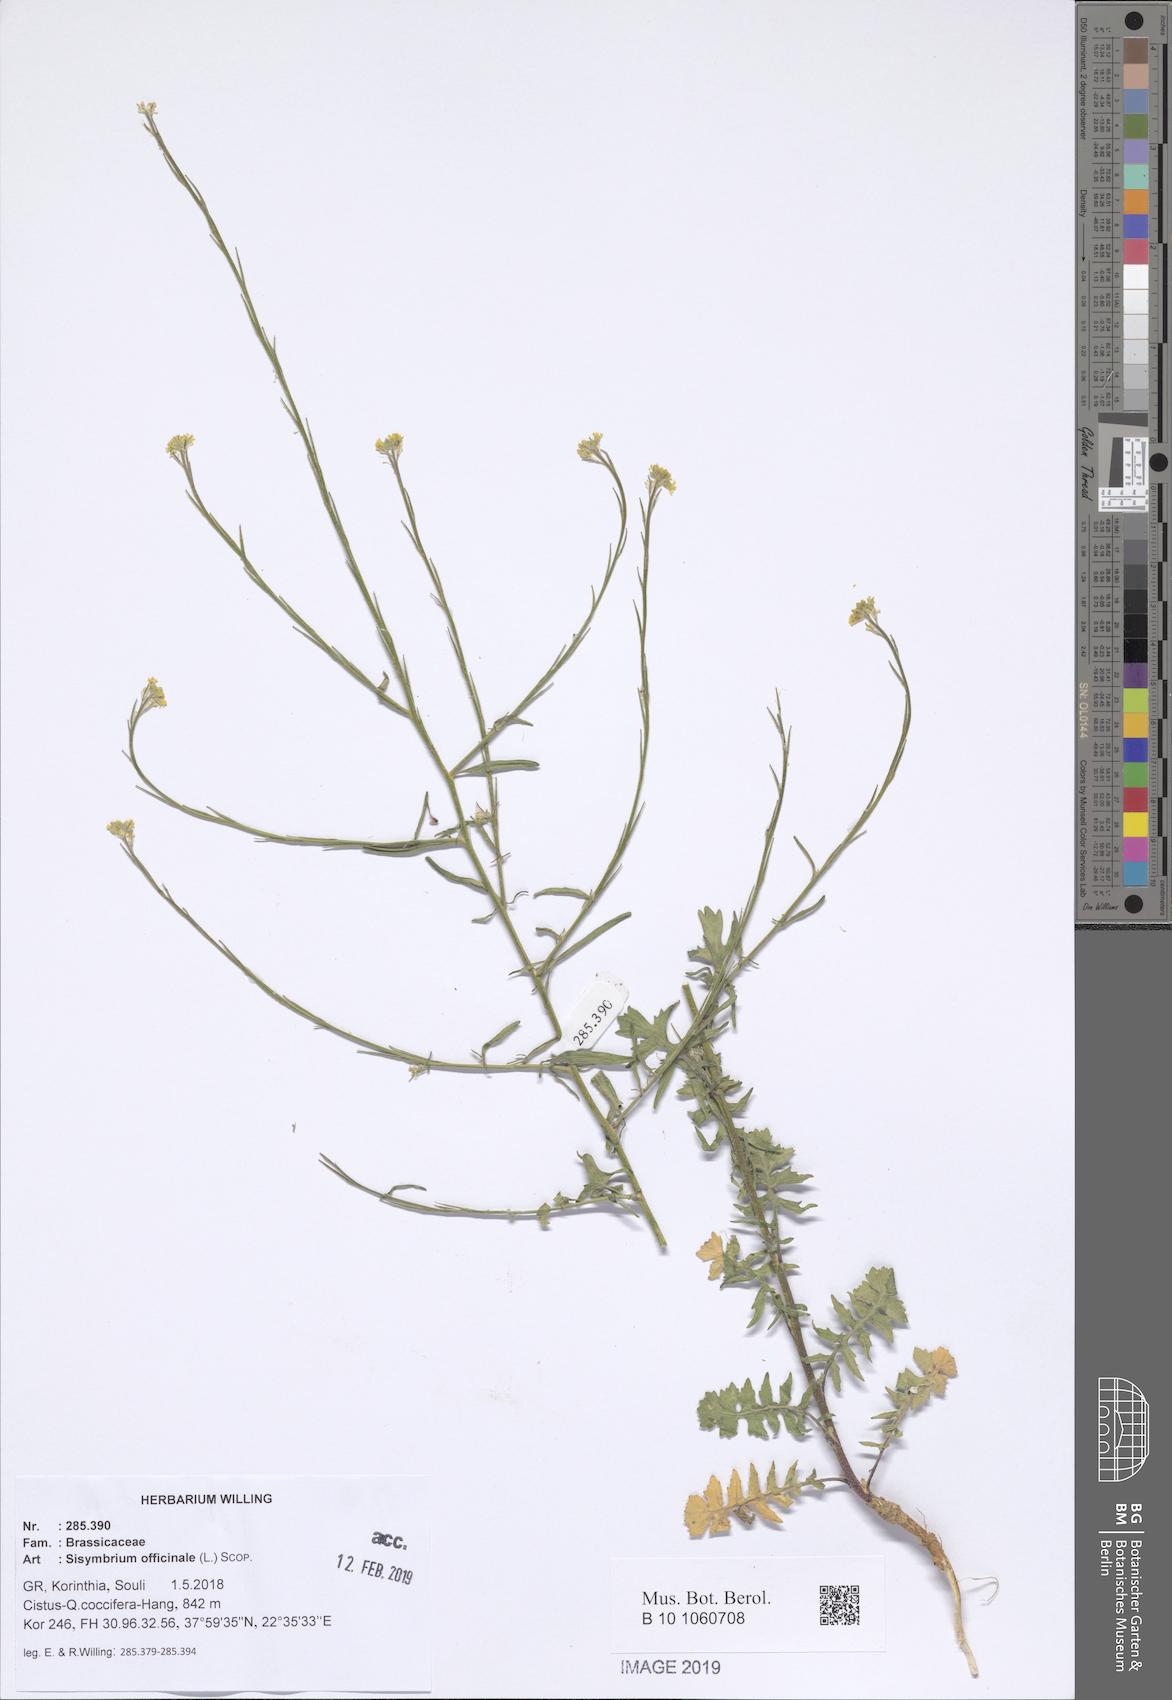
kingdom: Plantae
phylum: Tracheophyta
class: Magnoliopsida
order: Brassicales
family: Brassicaceae
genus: Sisymbrium
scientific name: Sisymbrium officinale
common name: Hedge mustard
